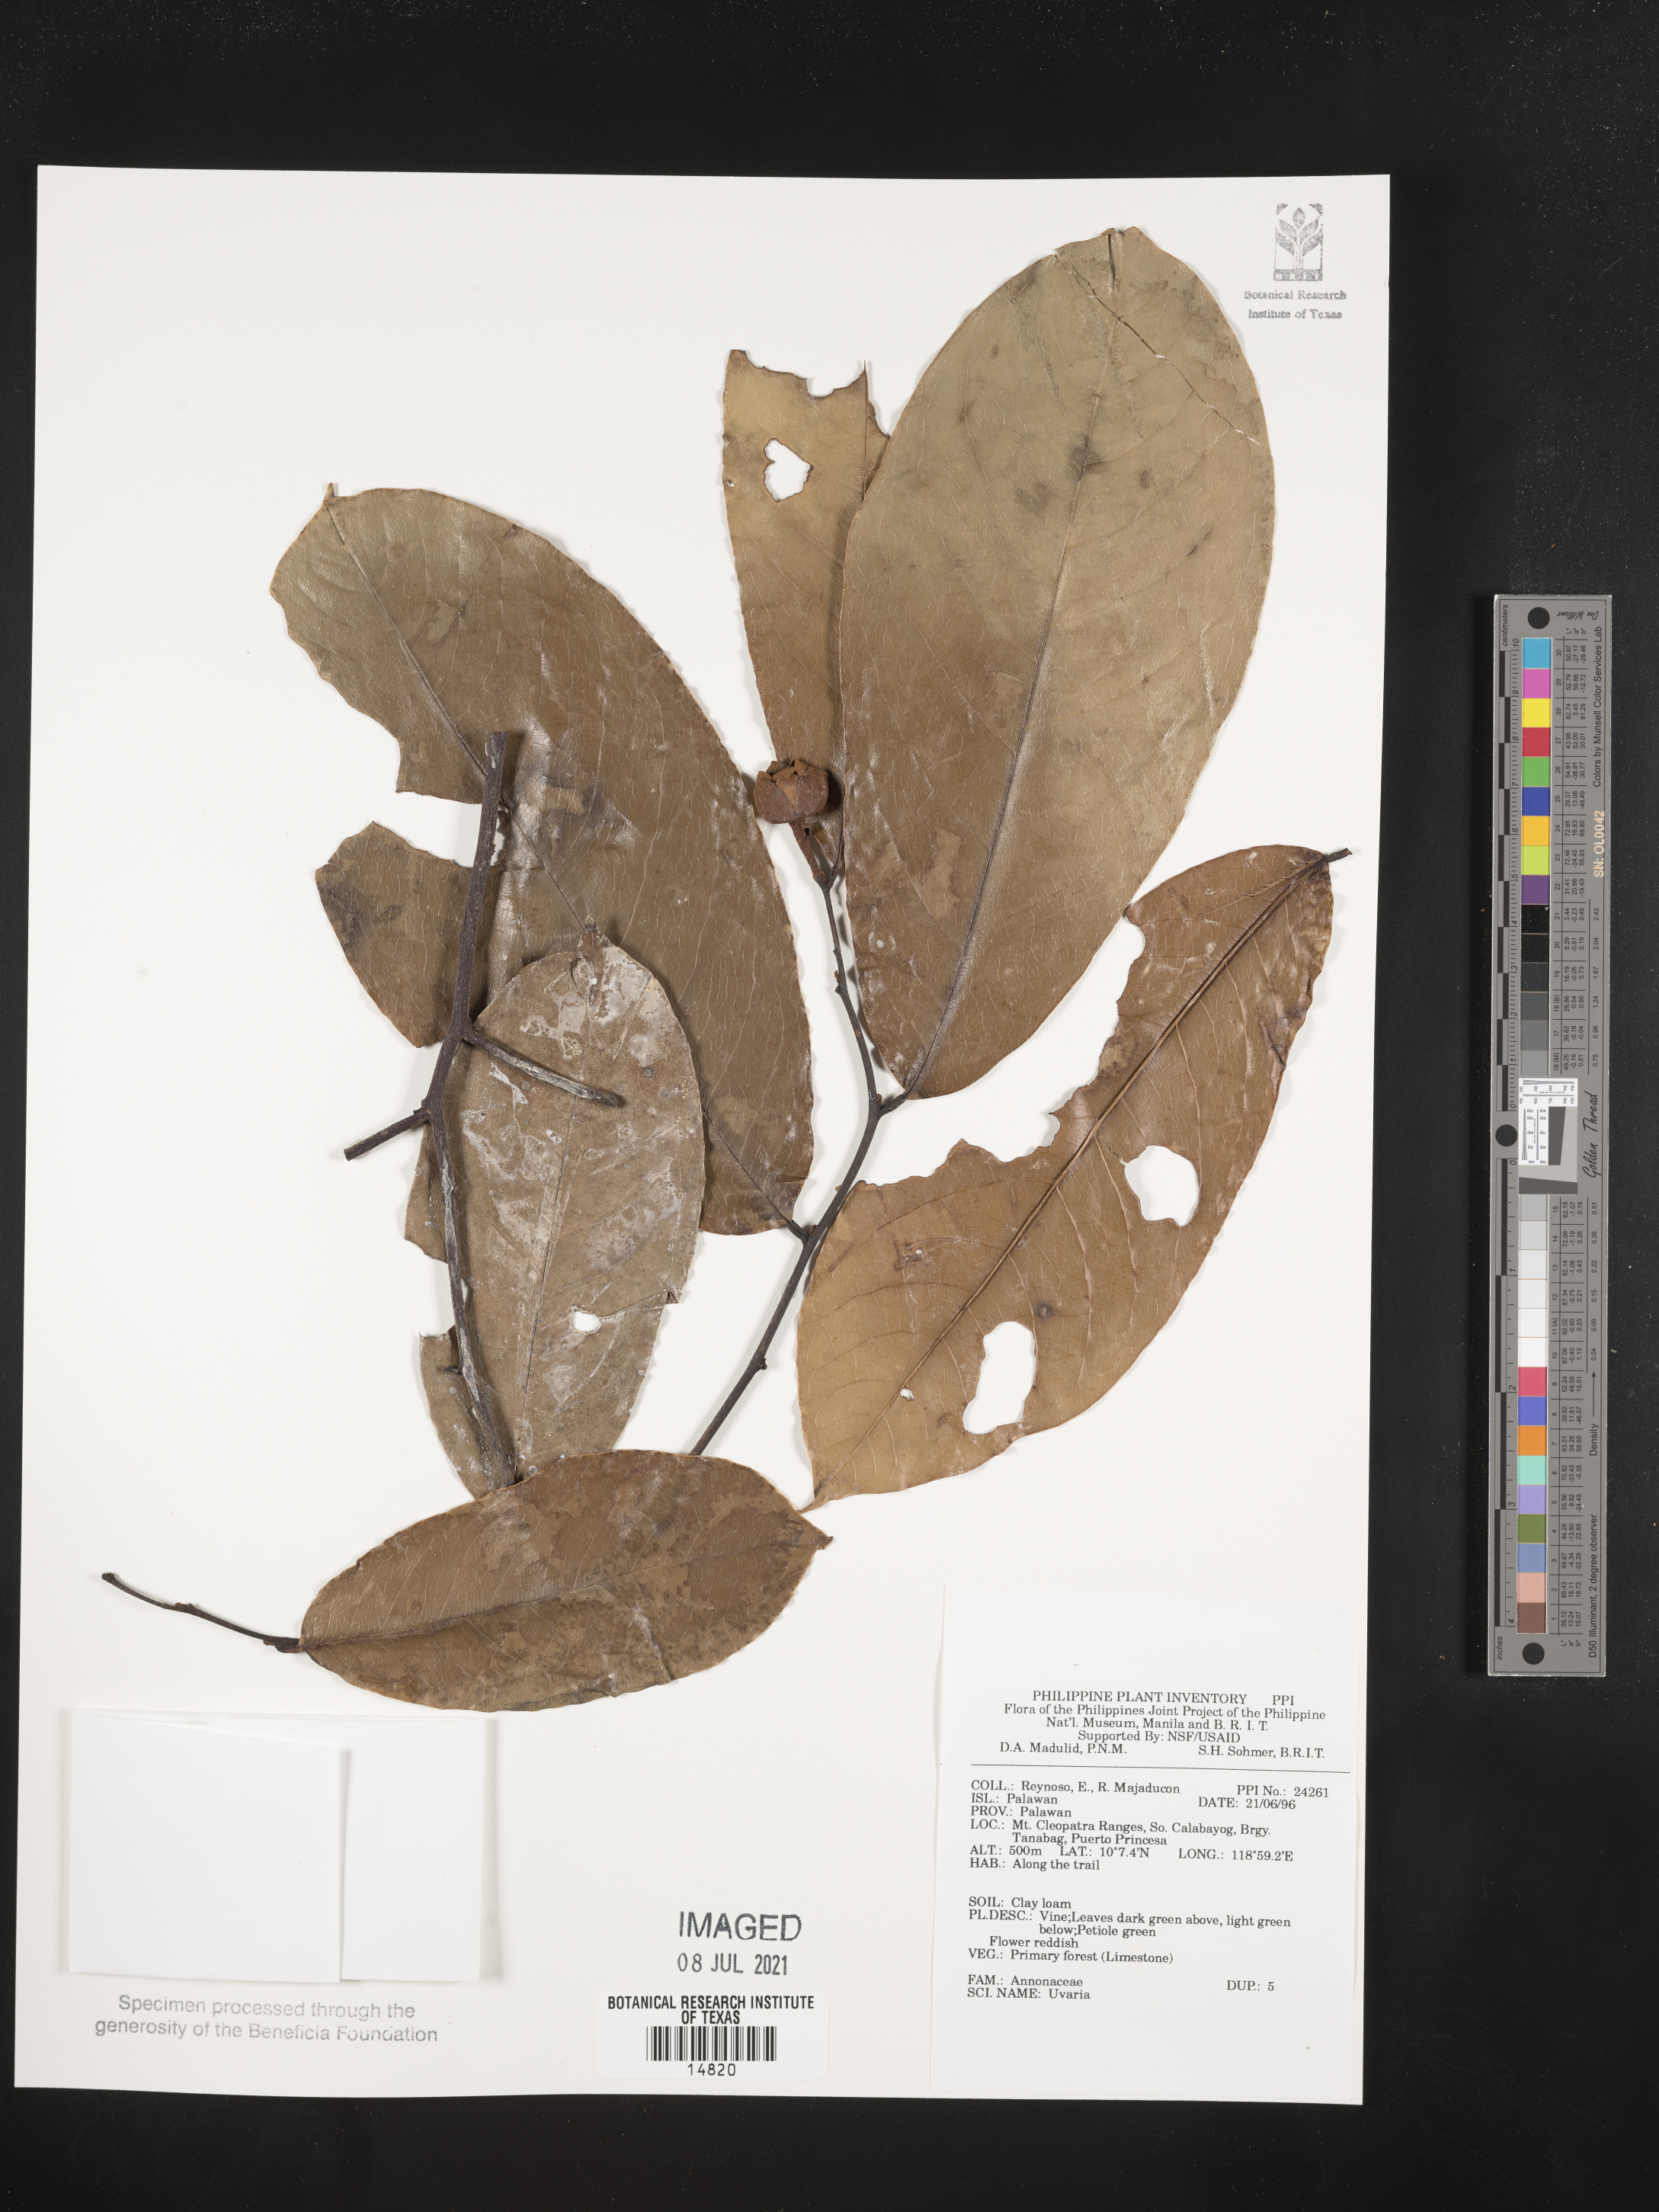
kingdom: Plantae
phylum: Tracheophyta
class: Magnoliopsida
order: Magnoliales
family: Annonaceae
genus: Uvaria
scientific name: Uvaria
